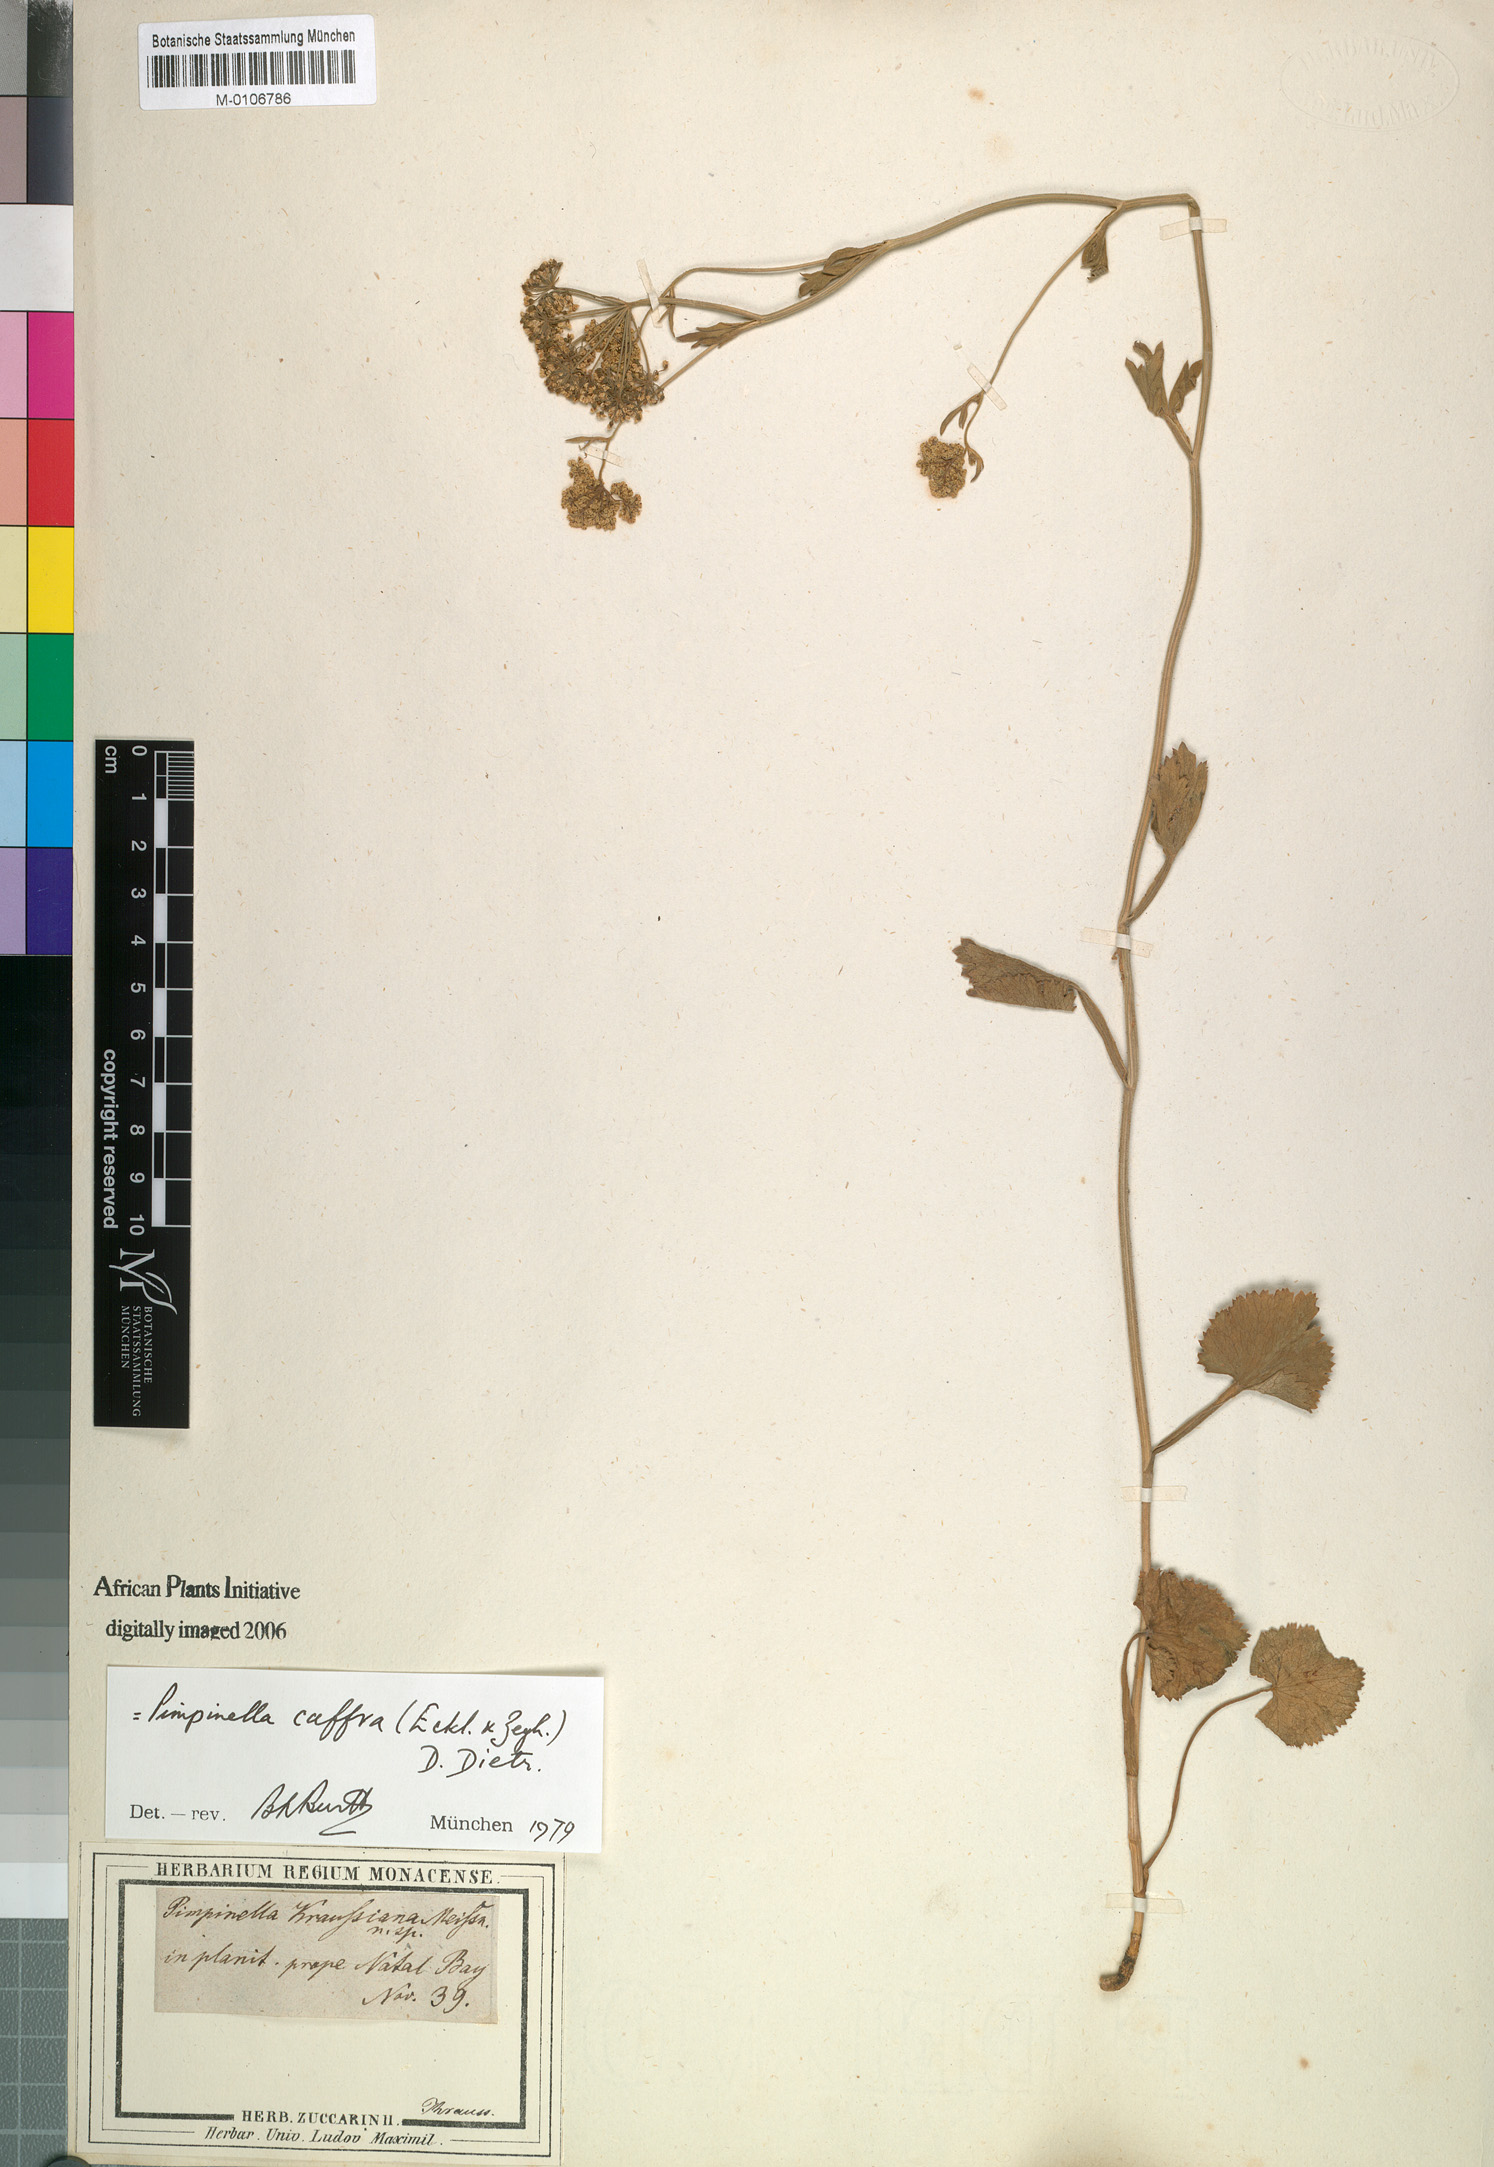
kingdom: Plantae
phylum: Tracheophyta
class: Magnoliopsida
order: Apiales
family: Apiaceae
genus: Pimpinella
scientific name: Pimpinella caffra
